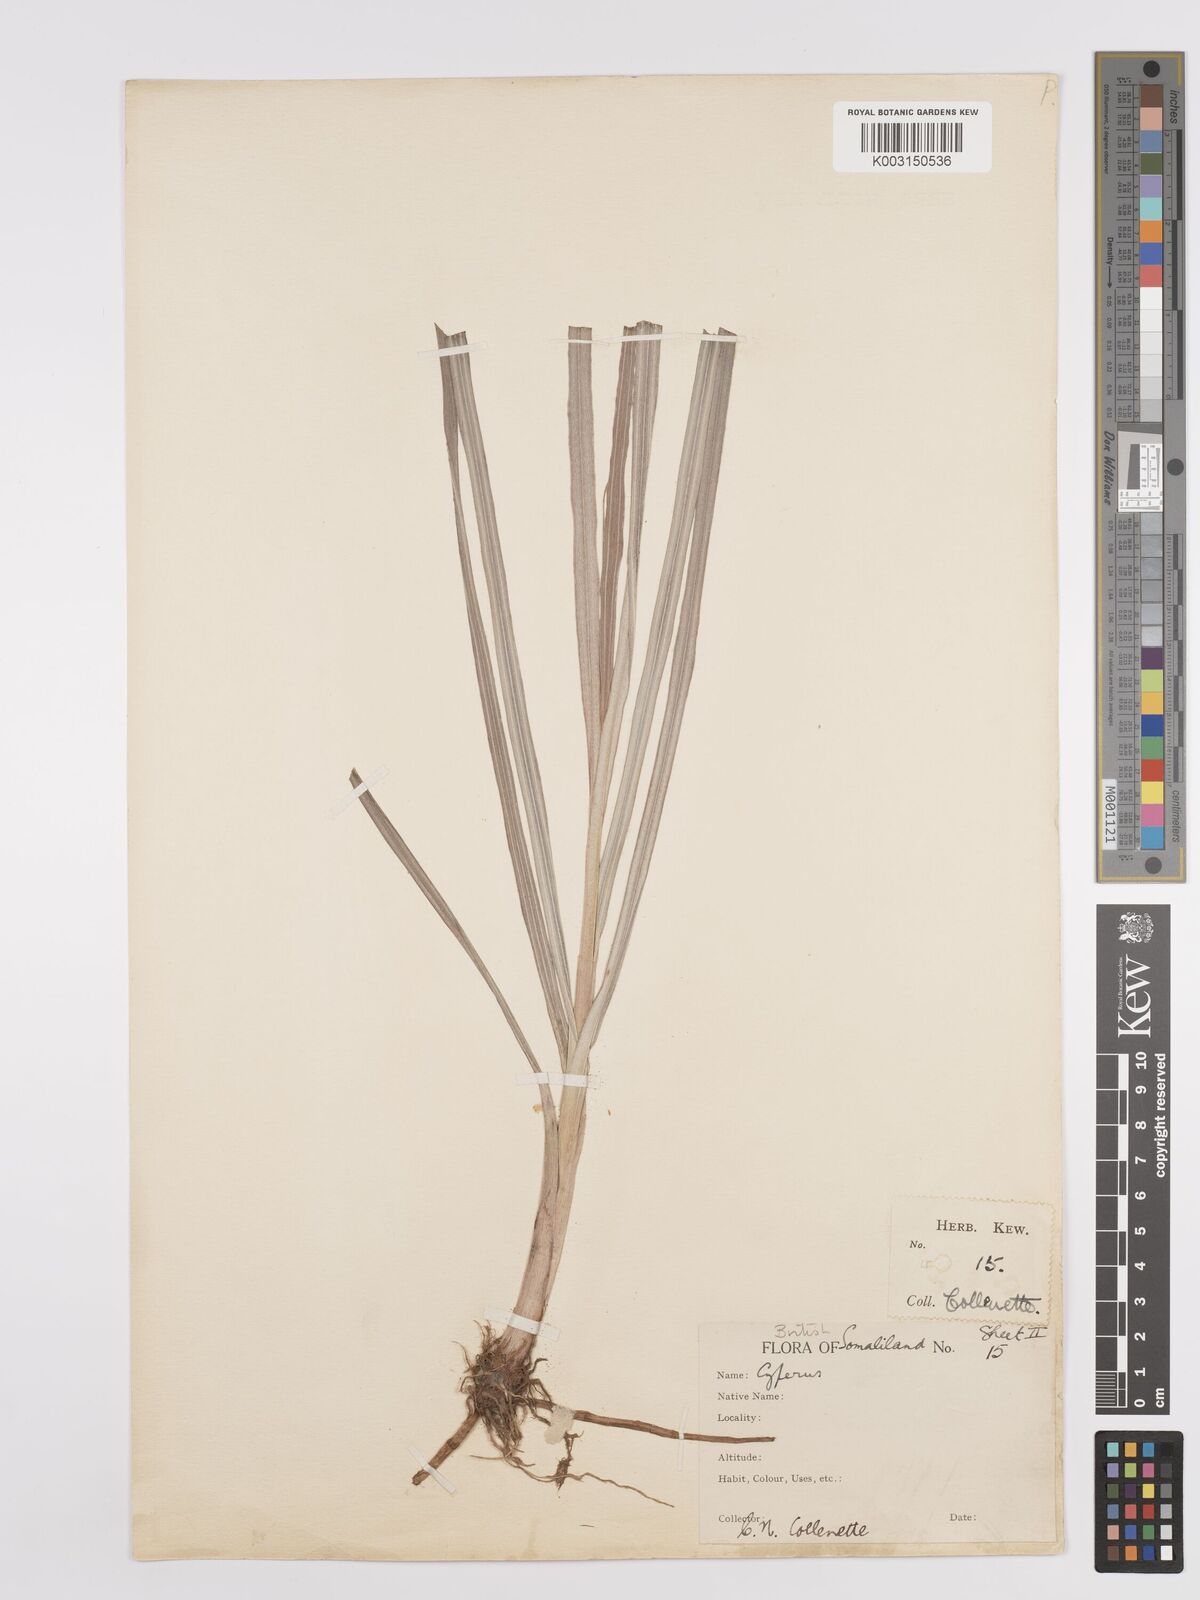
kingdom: Plantae
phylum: Tracheophyta
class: Liliopsida
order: Poales
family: Cyperaceae
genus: Cyperus
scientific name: Cyperus bifax
